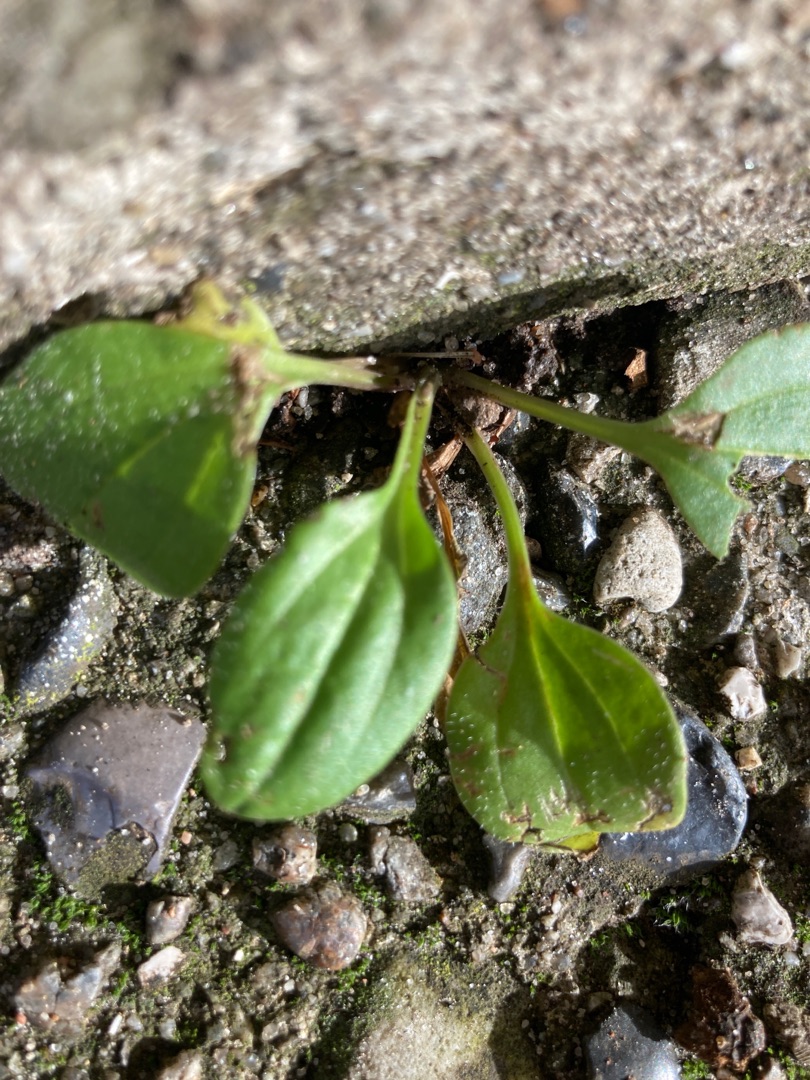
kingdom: Plantae
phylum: Tracheophyta
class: Magnoliopsida
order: Lamiales
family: Plantaginaceae
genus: Plantago
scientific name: Plantago major
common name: Glat vejbred
